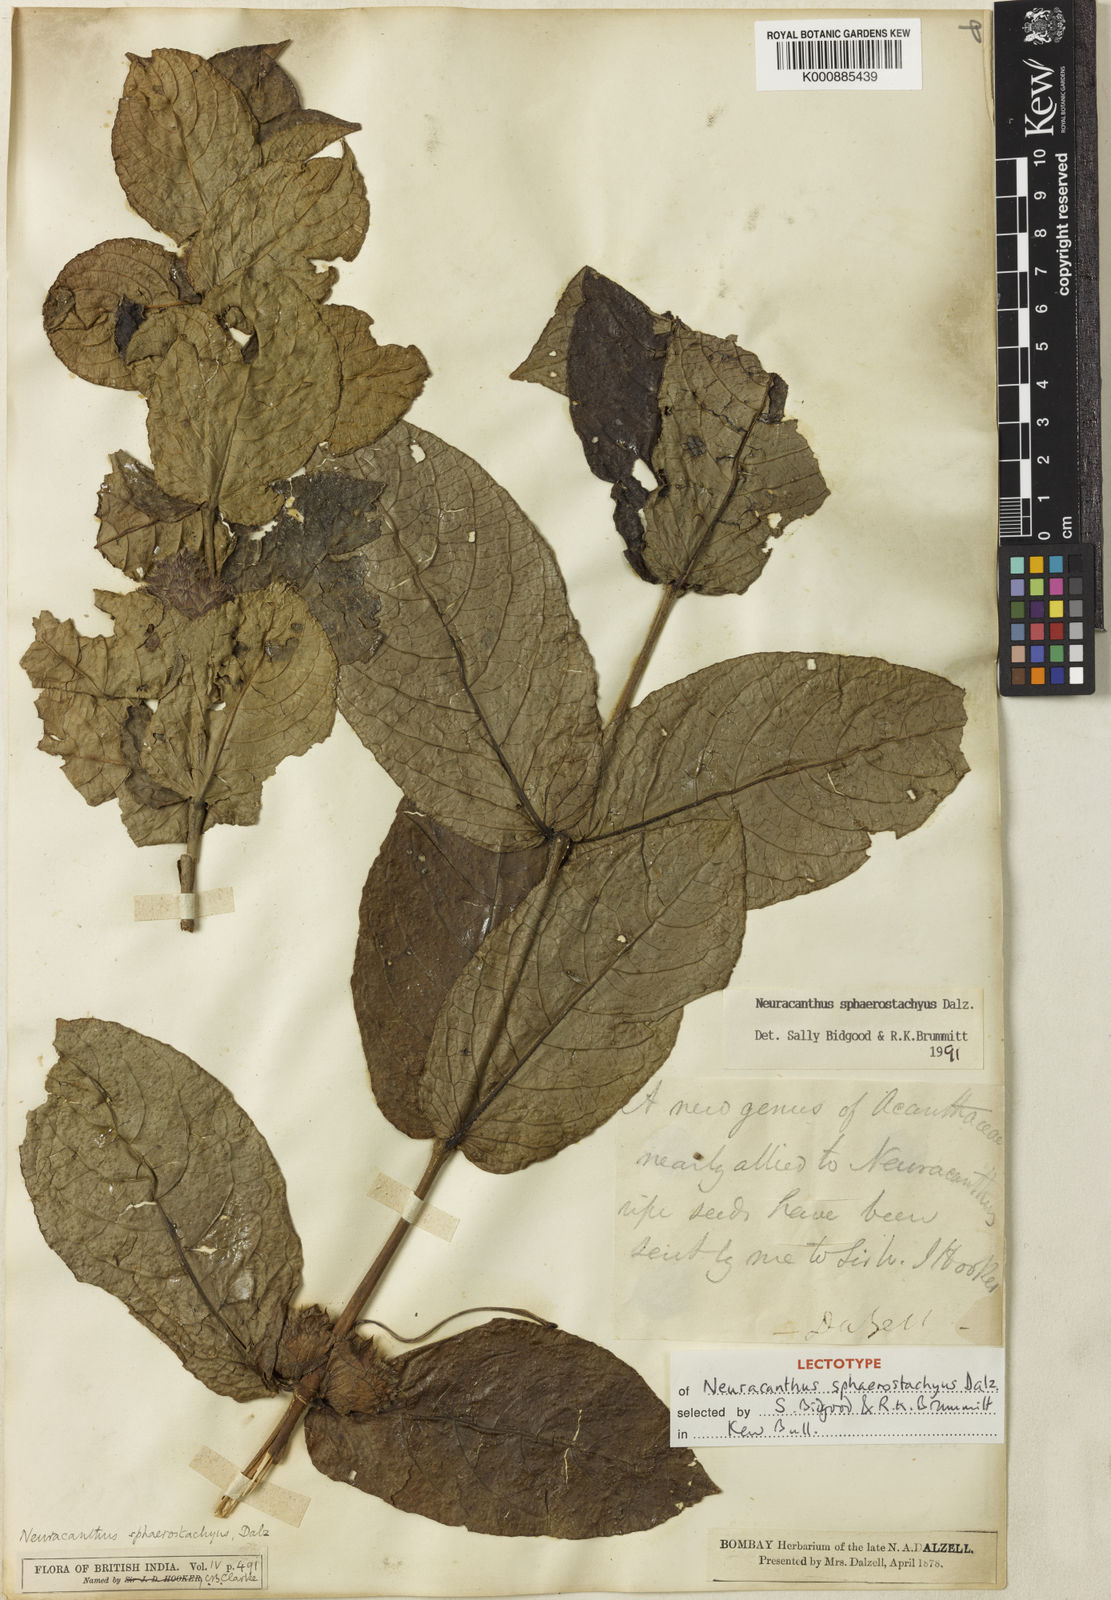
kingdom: Plantae
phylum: Tracheophyta
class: Magnoliopsida
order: Lamiales
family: Acanthaceae
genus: Neuracanthus
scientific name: Neuracanthus
